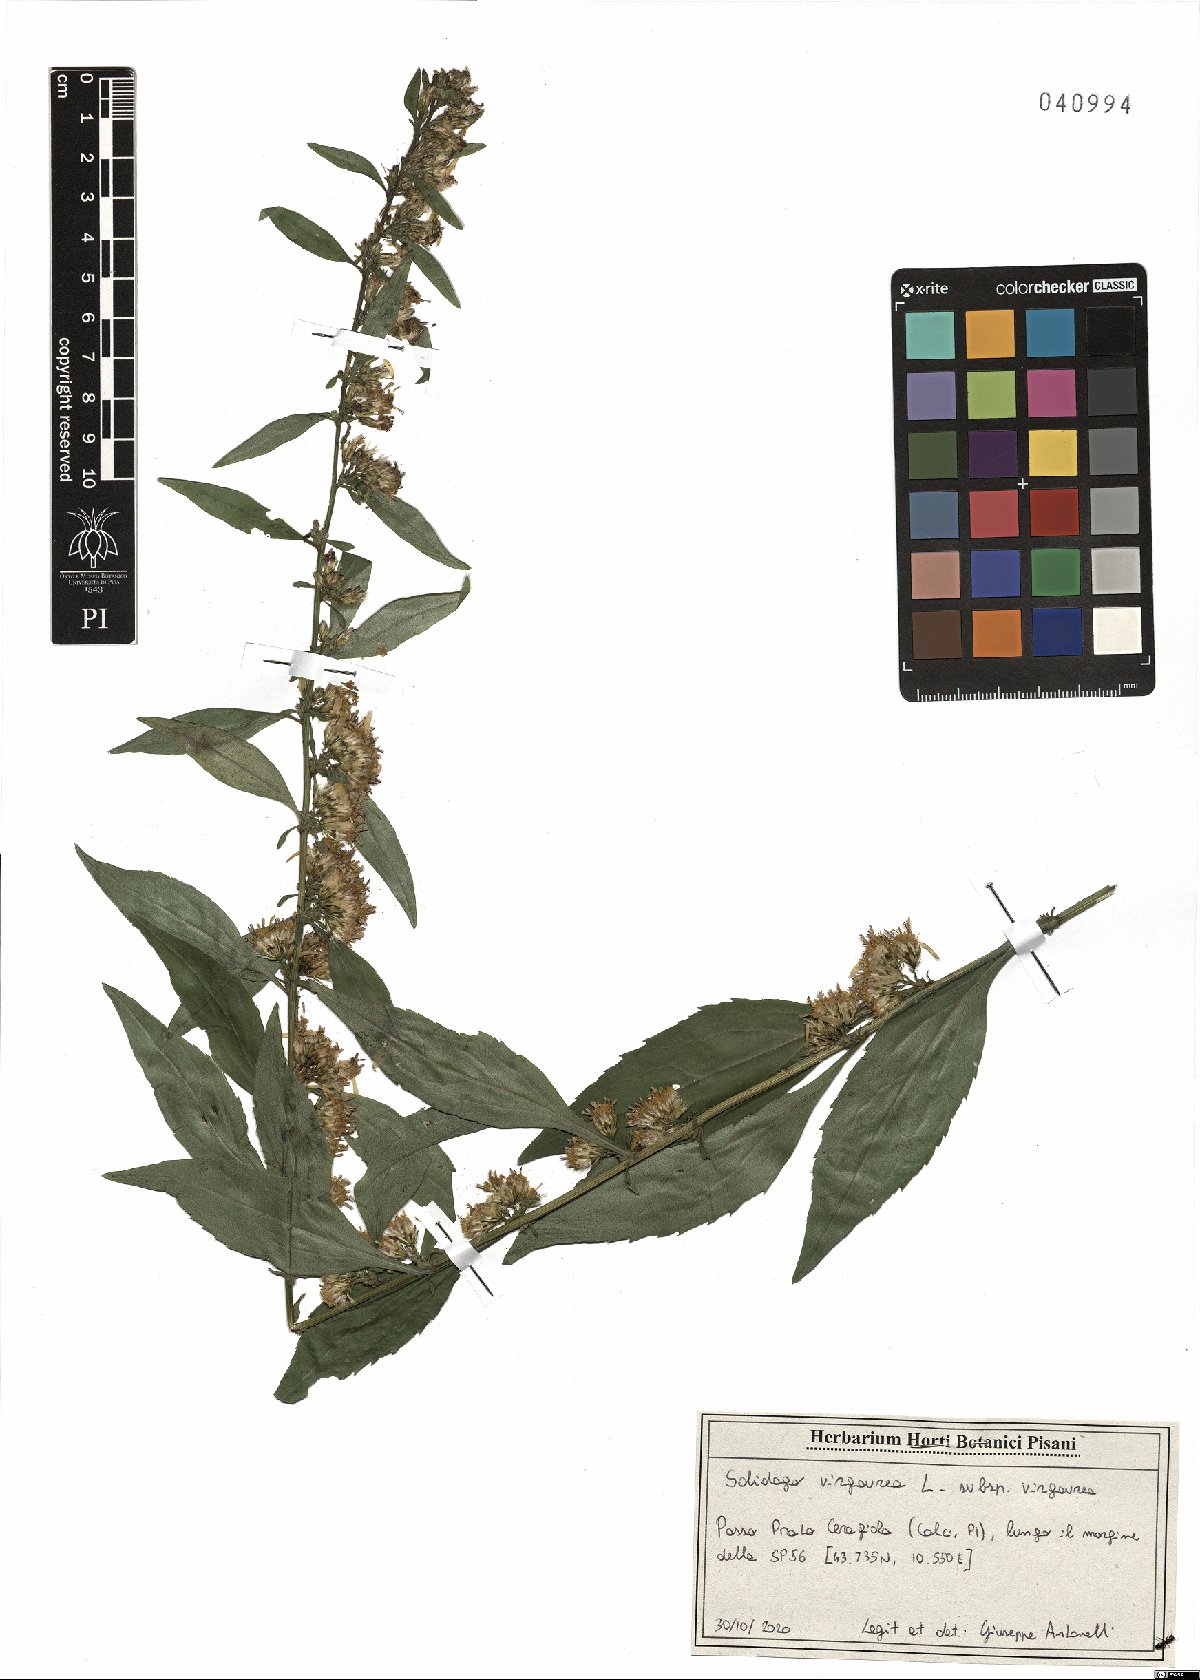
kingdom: Plantae
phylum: Tracheophyta
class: Magnoliopsida
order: Asterales
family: Asteraceae
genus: Solidago
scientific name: Solidago virgaurea
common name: Goldenrod
